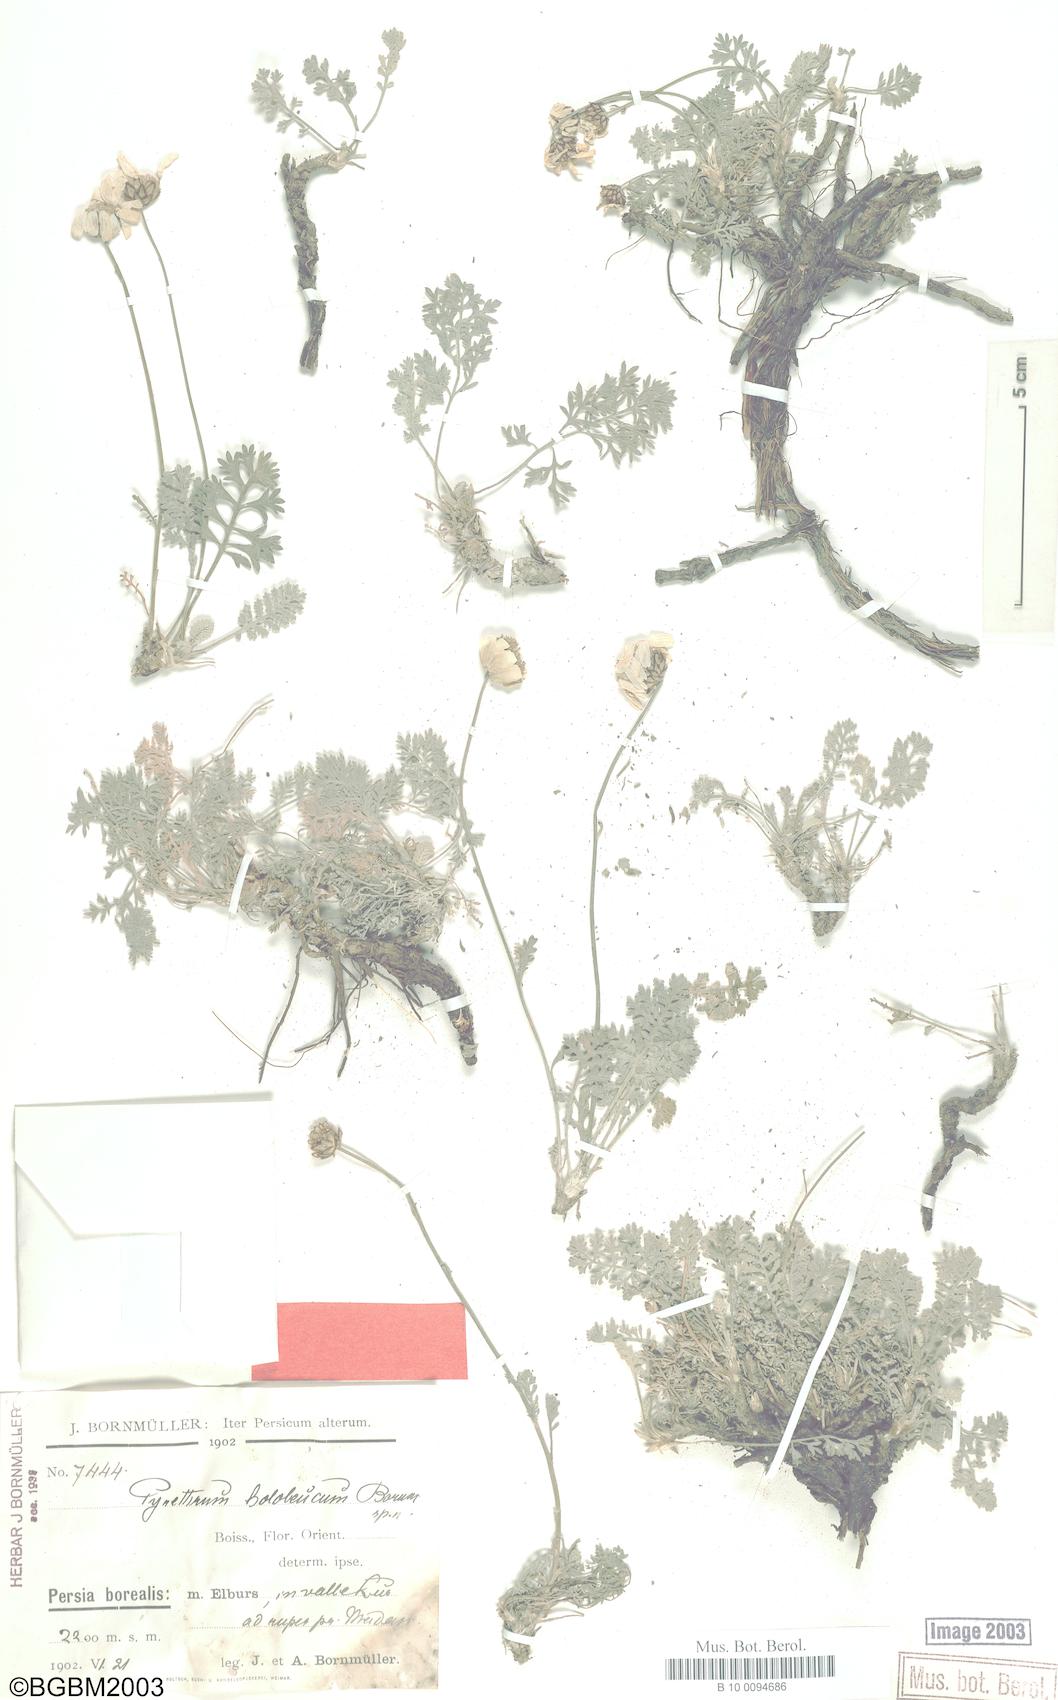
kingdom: Plantae
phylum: Tracheophyta
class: Magnoliopsida
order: Asterales
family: Asteraceae
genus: Tanacetum
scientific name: Tanacetum hololeucum
